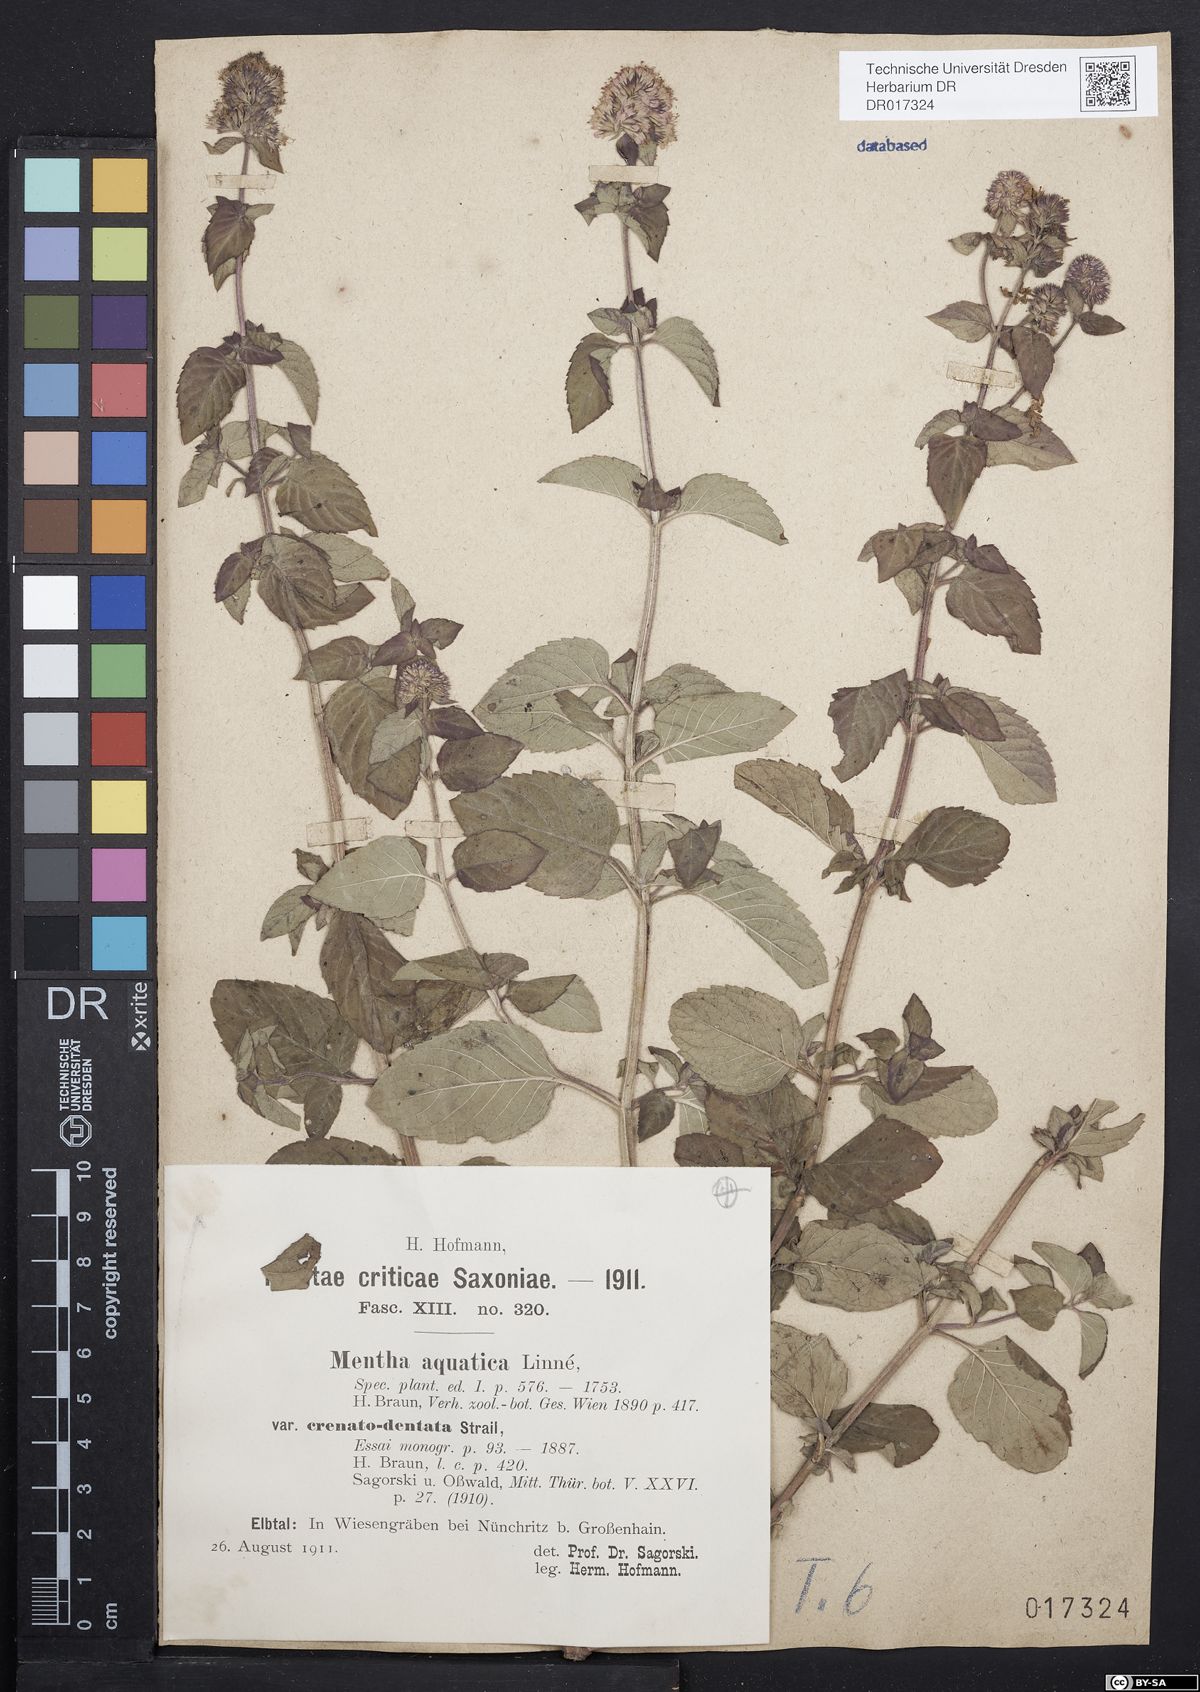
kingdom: Plantae
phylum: Tracheophyta
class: Magnoliopsida
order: Lamiales
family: Lamiaceae
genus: Mentha
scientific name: Mentha aquatica
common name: Water mint
